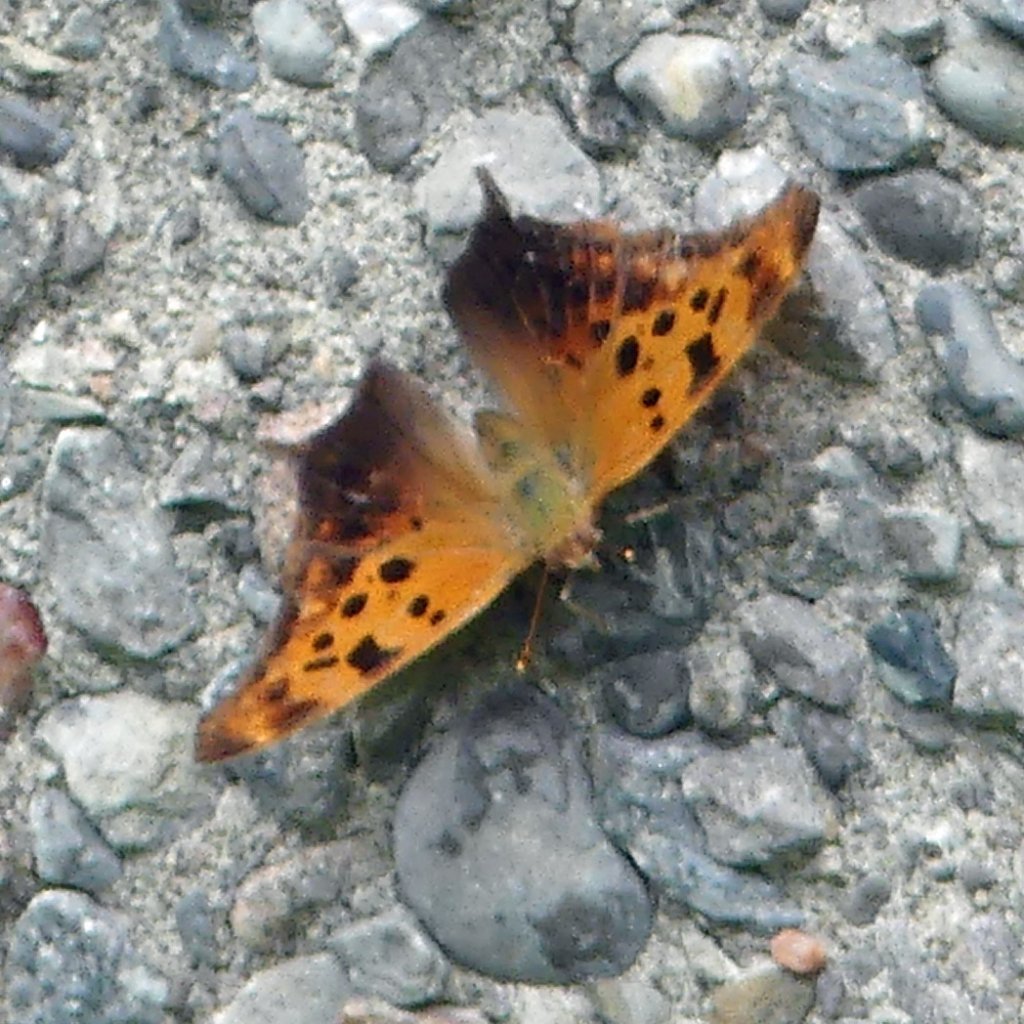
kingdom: Animalia
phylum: Arthropoda
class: Insecta
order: Lepidoptera
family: Nymphalidae
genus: Polygonia
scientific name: Polygonia interrogationis
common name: Question Mark
